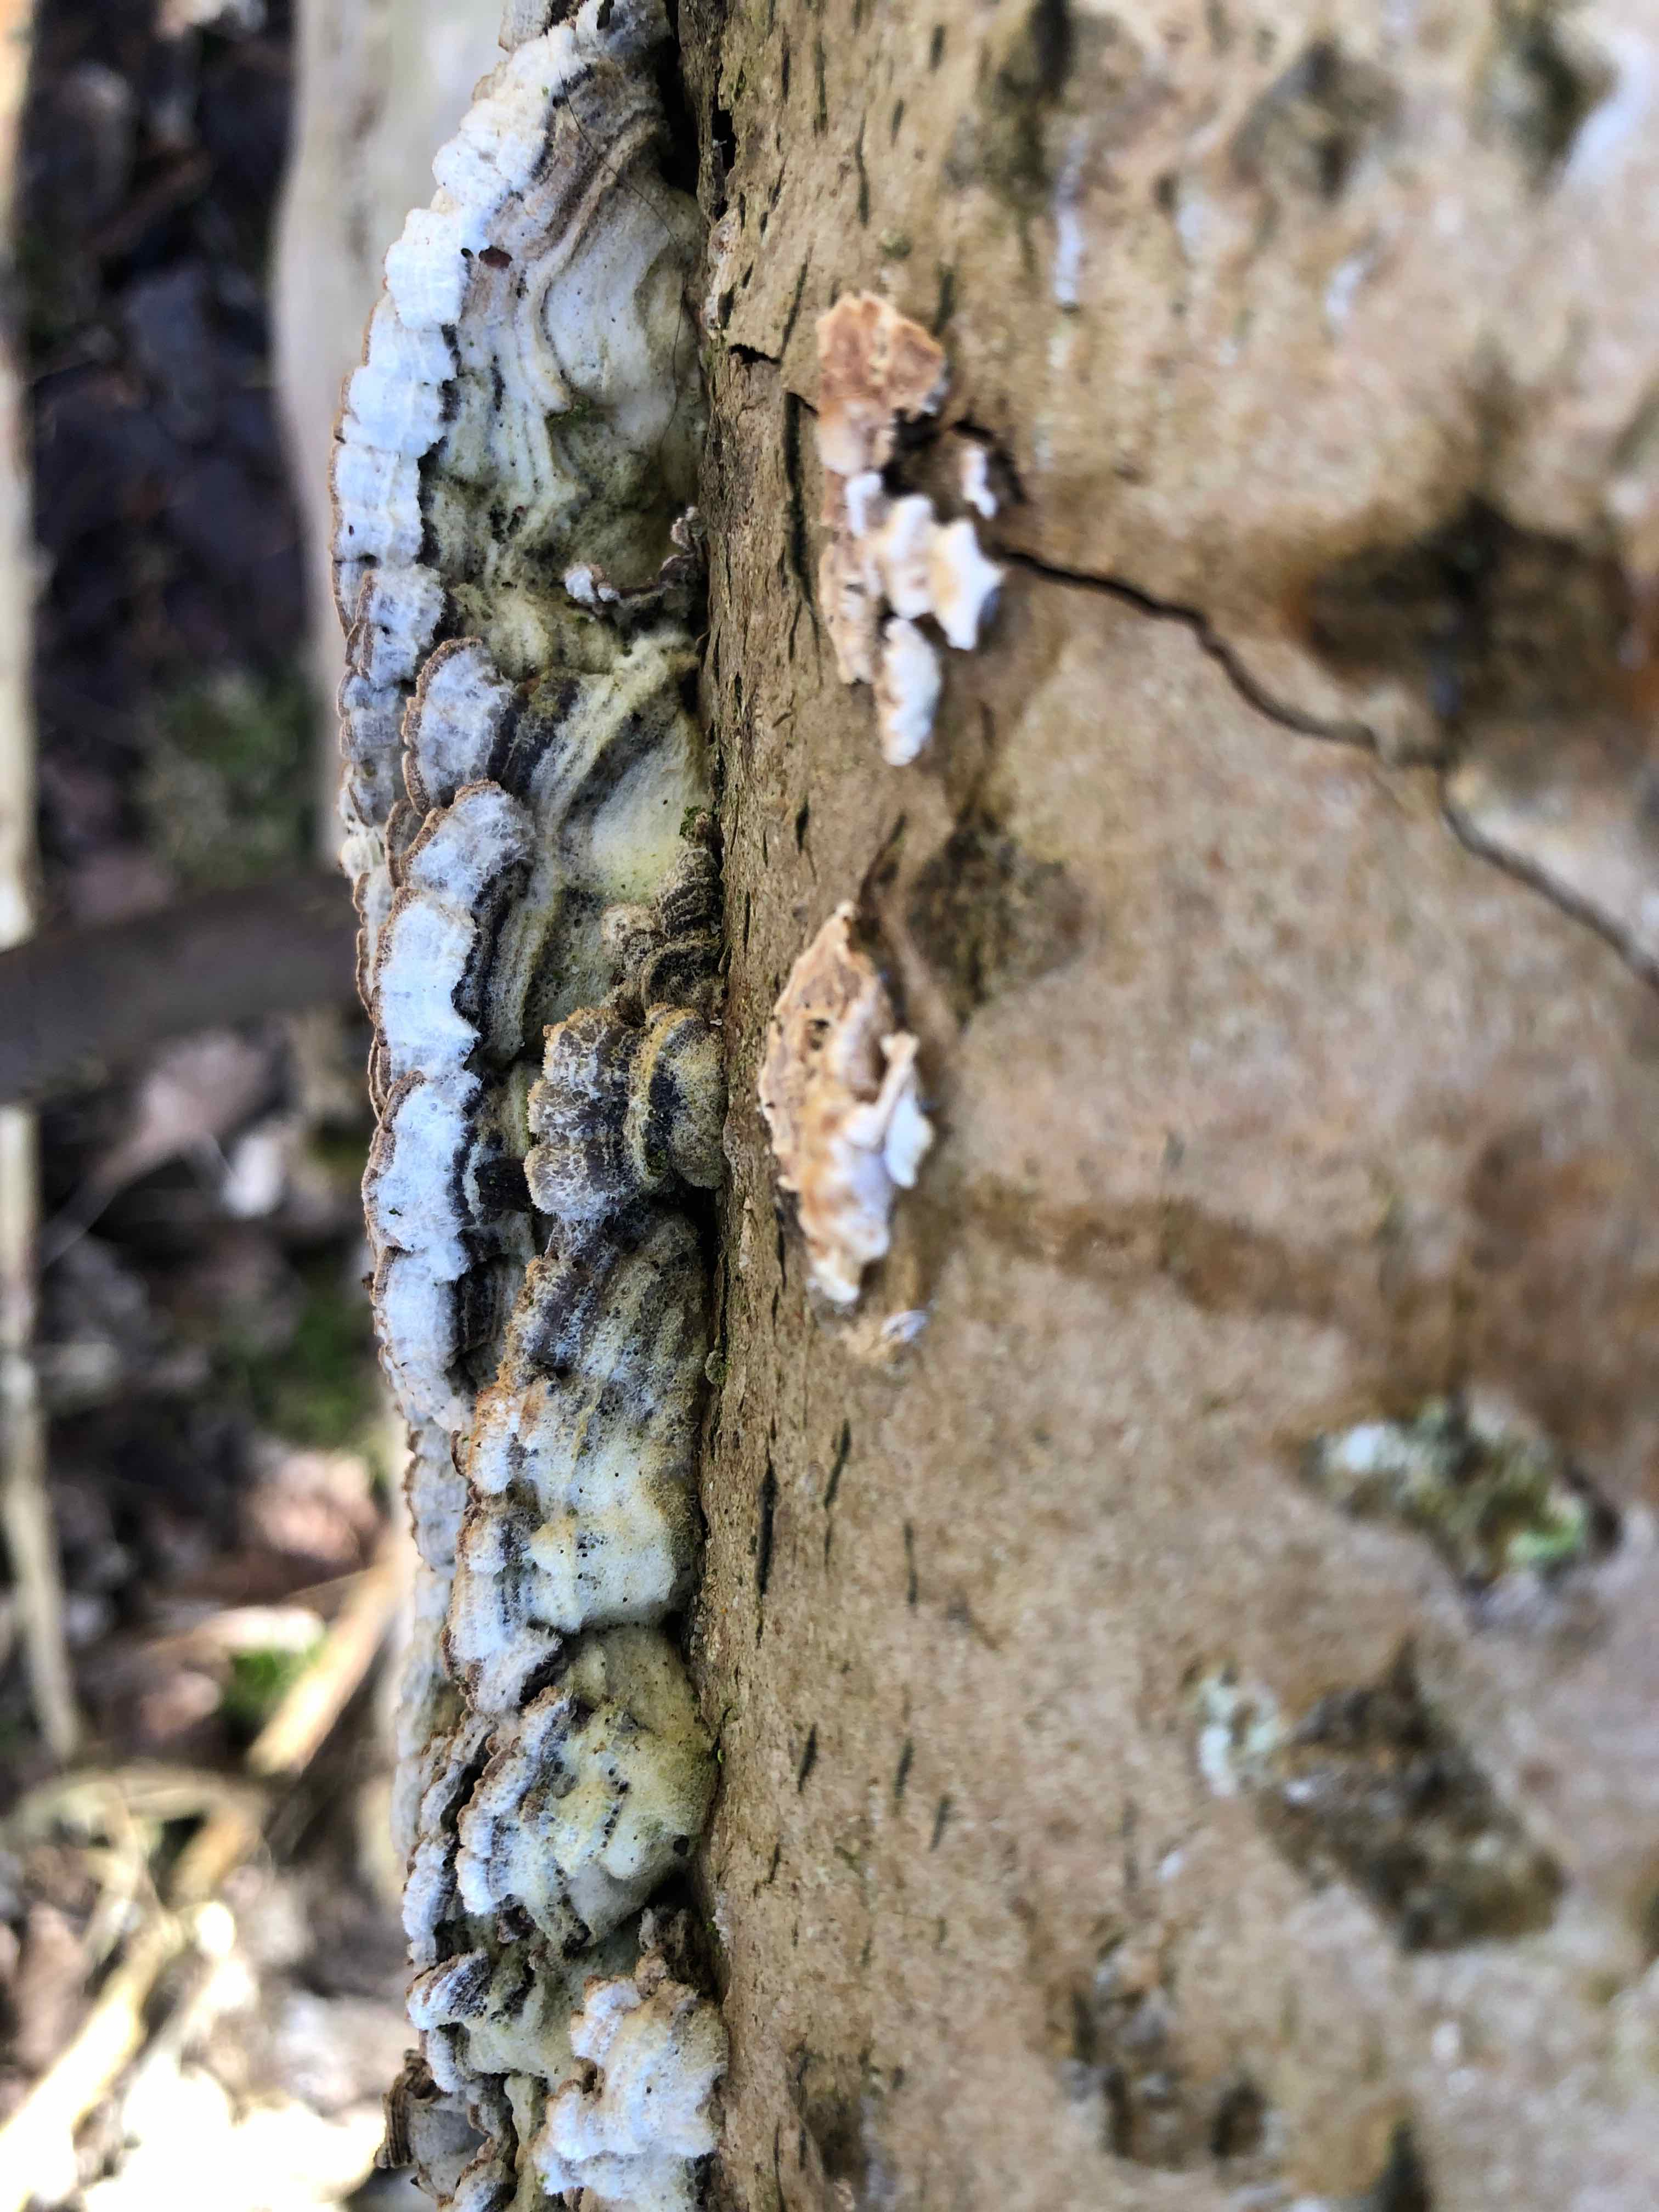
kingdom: Fungi
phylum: Basidiomycota
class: Agaricomycetes
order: Agaricales
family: Cyphellaceae
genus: Chondrostereum
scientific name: Chondrostereum purpureum
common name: purpurlædersvamp
